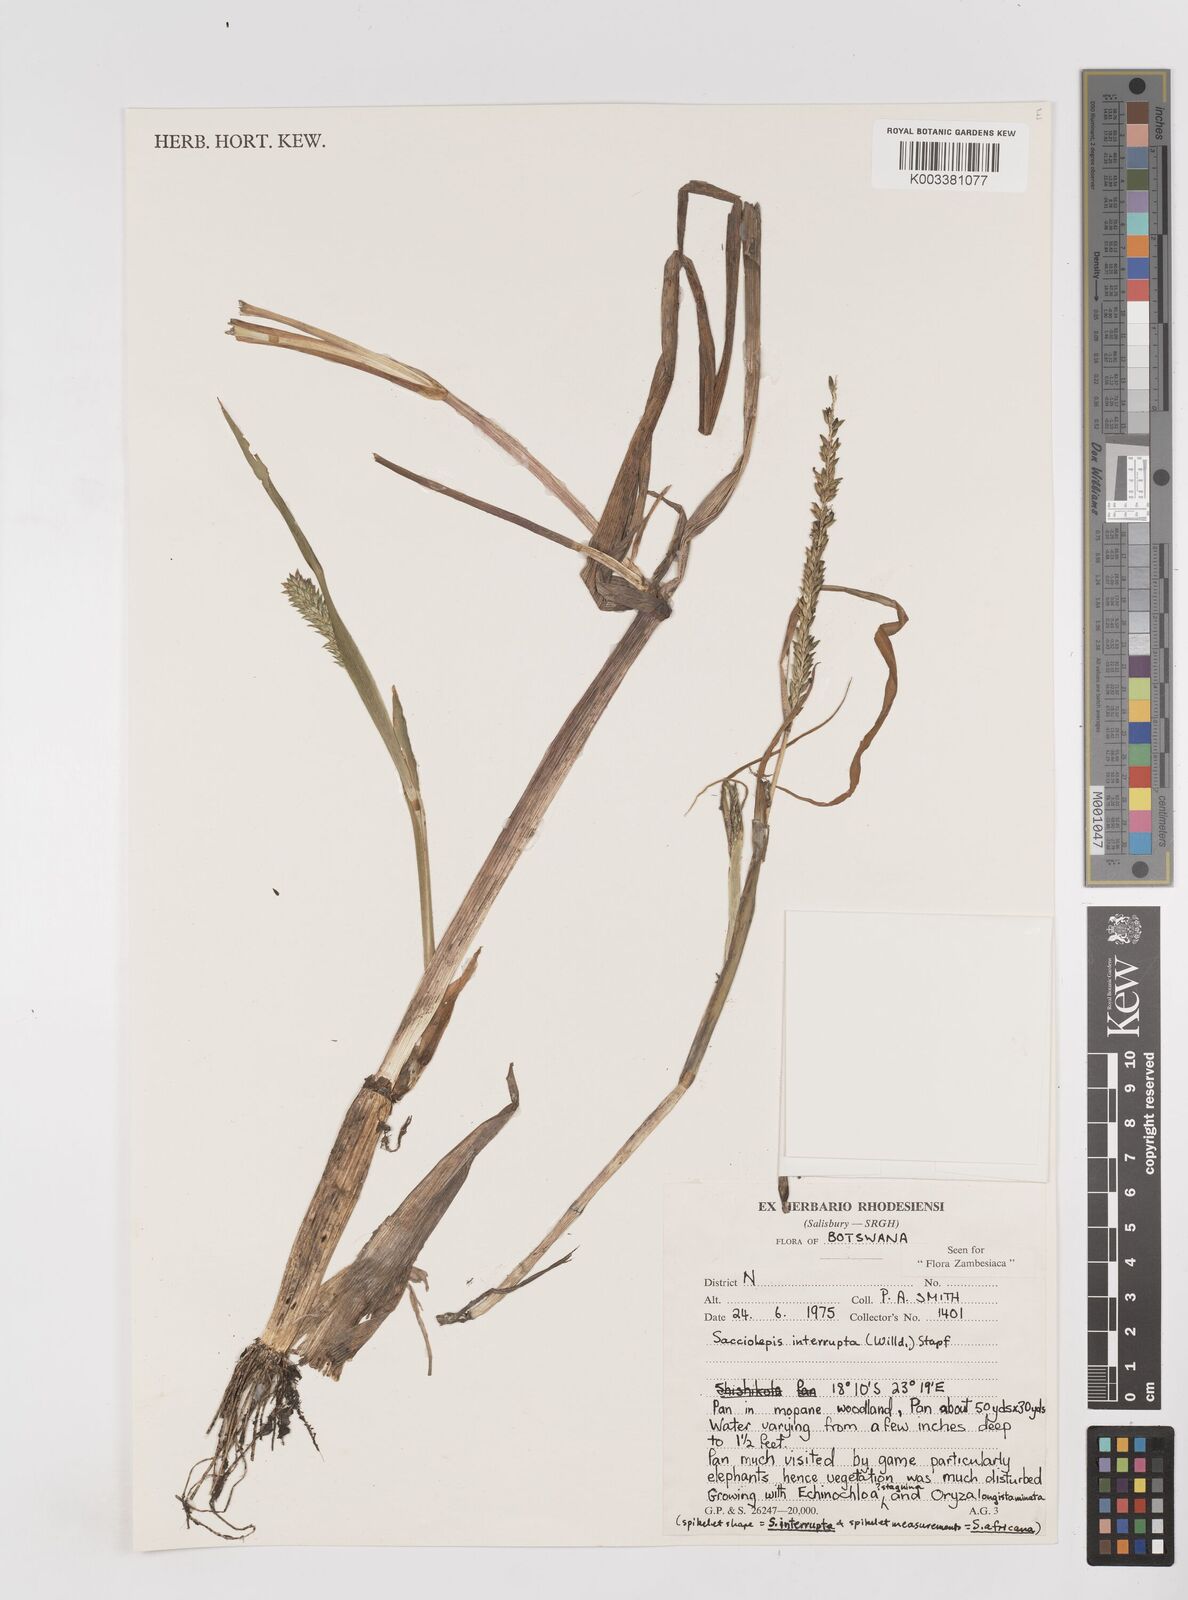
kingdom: Plantae
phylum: Tracheophyta
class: Liliopsida
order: Poales
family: Poaceae
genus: Sacciolepis
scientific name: Sacciolepis interrupta
